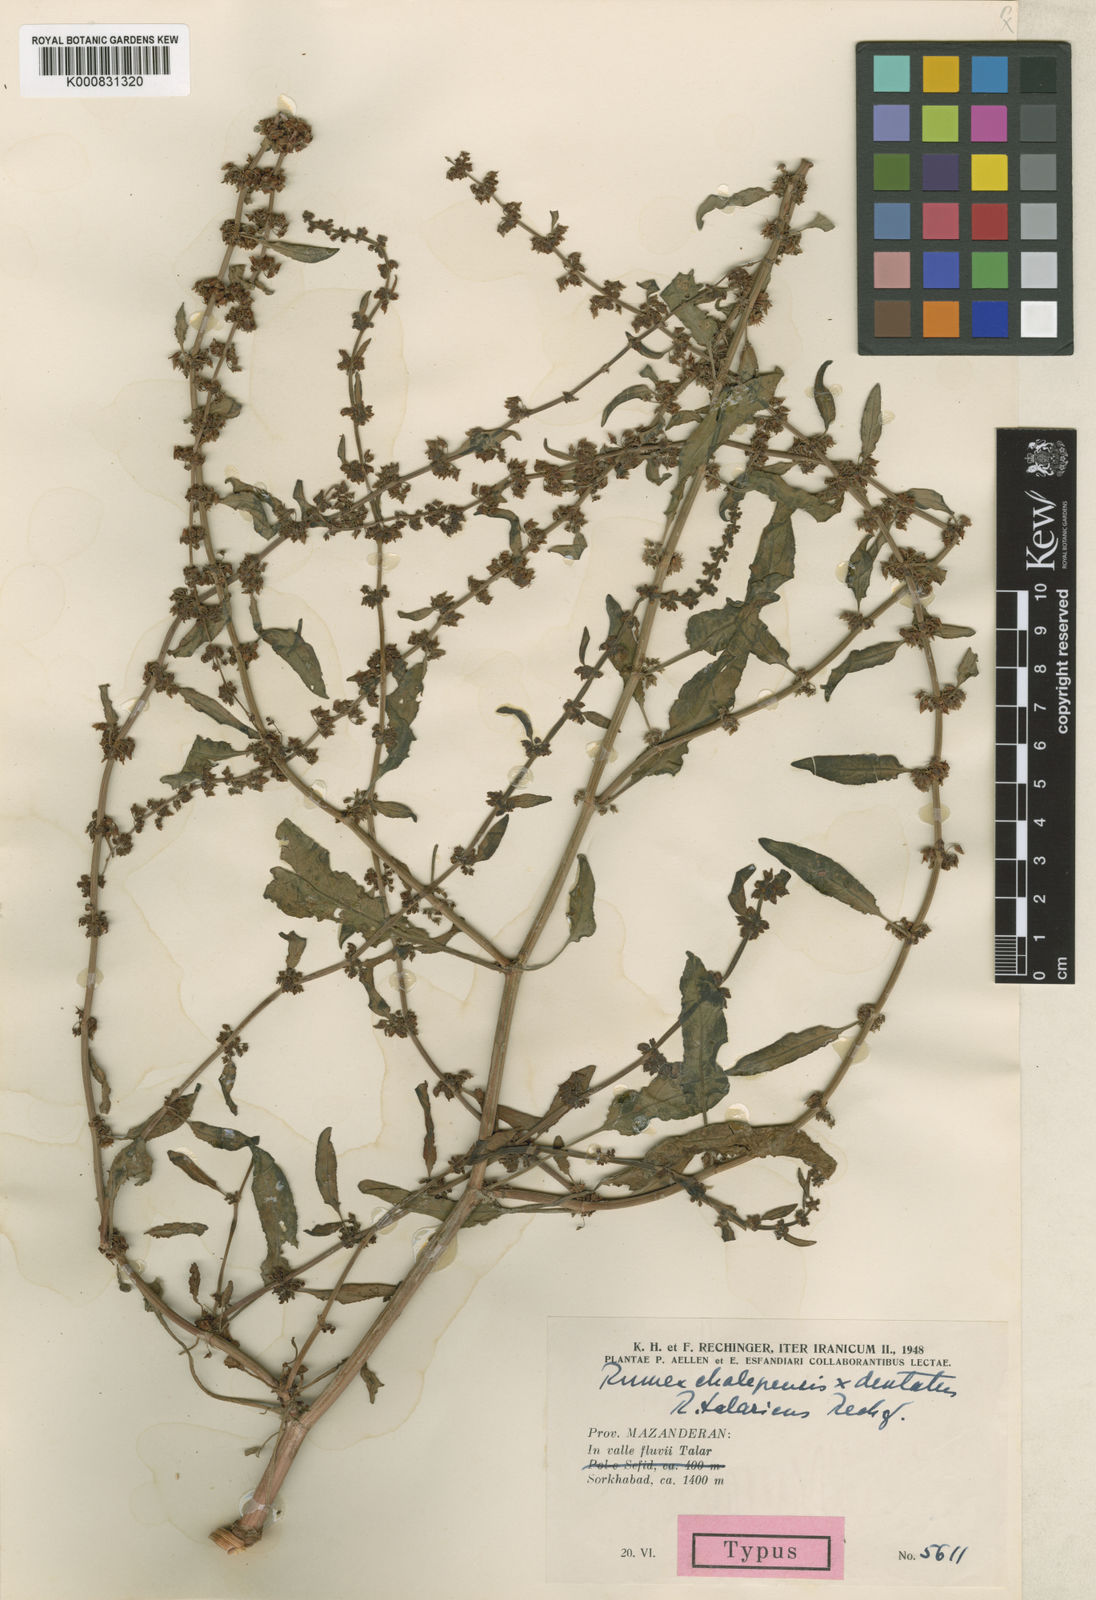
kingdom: Plantae
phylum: Tracheophyta
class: Magnoliopsida
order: Caryophyllales
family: Polygonaceae
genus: Rumex
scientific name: Rumex talaricus
